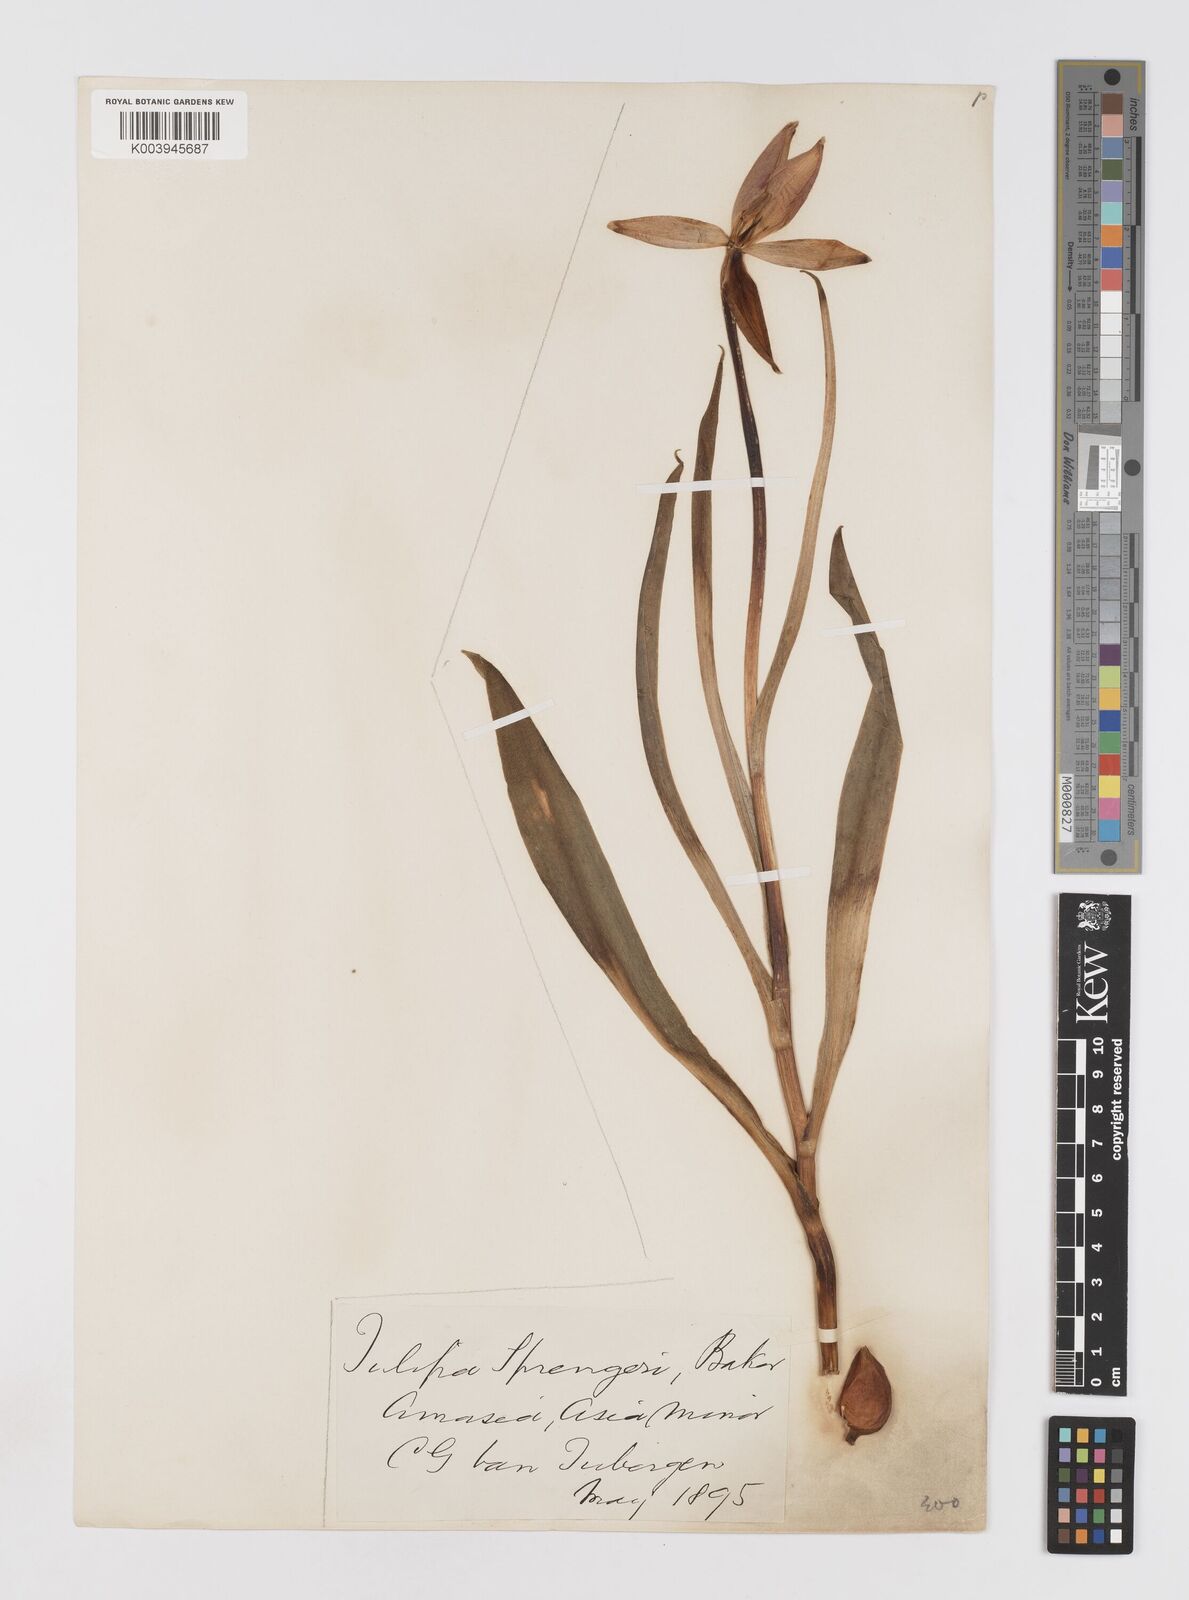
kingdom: Plantae
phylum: Tracheophyta
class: Liliopsida
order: Liliales
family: Liliaceae
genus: Tulipa
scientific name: Tulipa sprengeri
